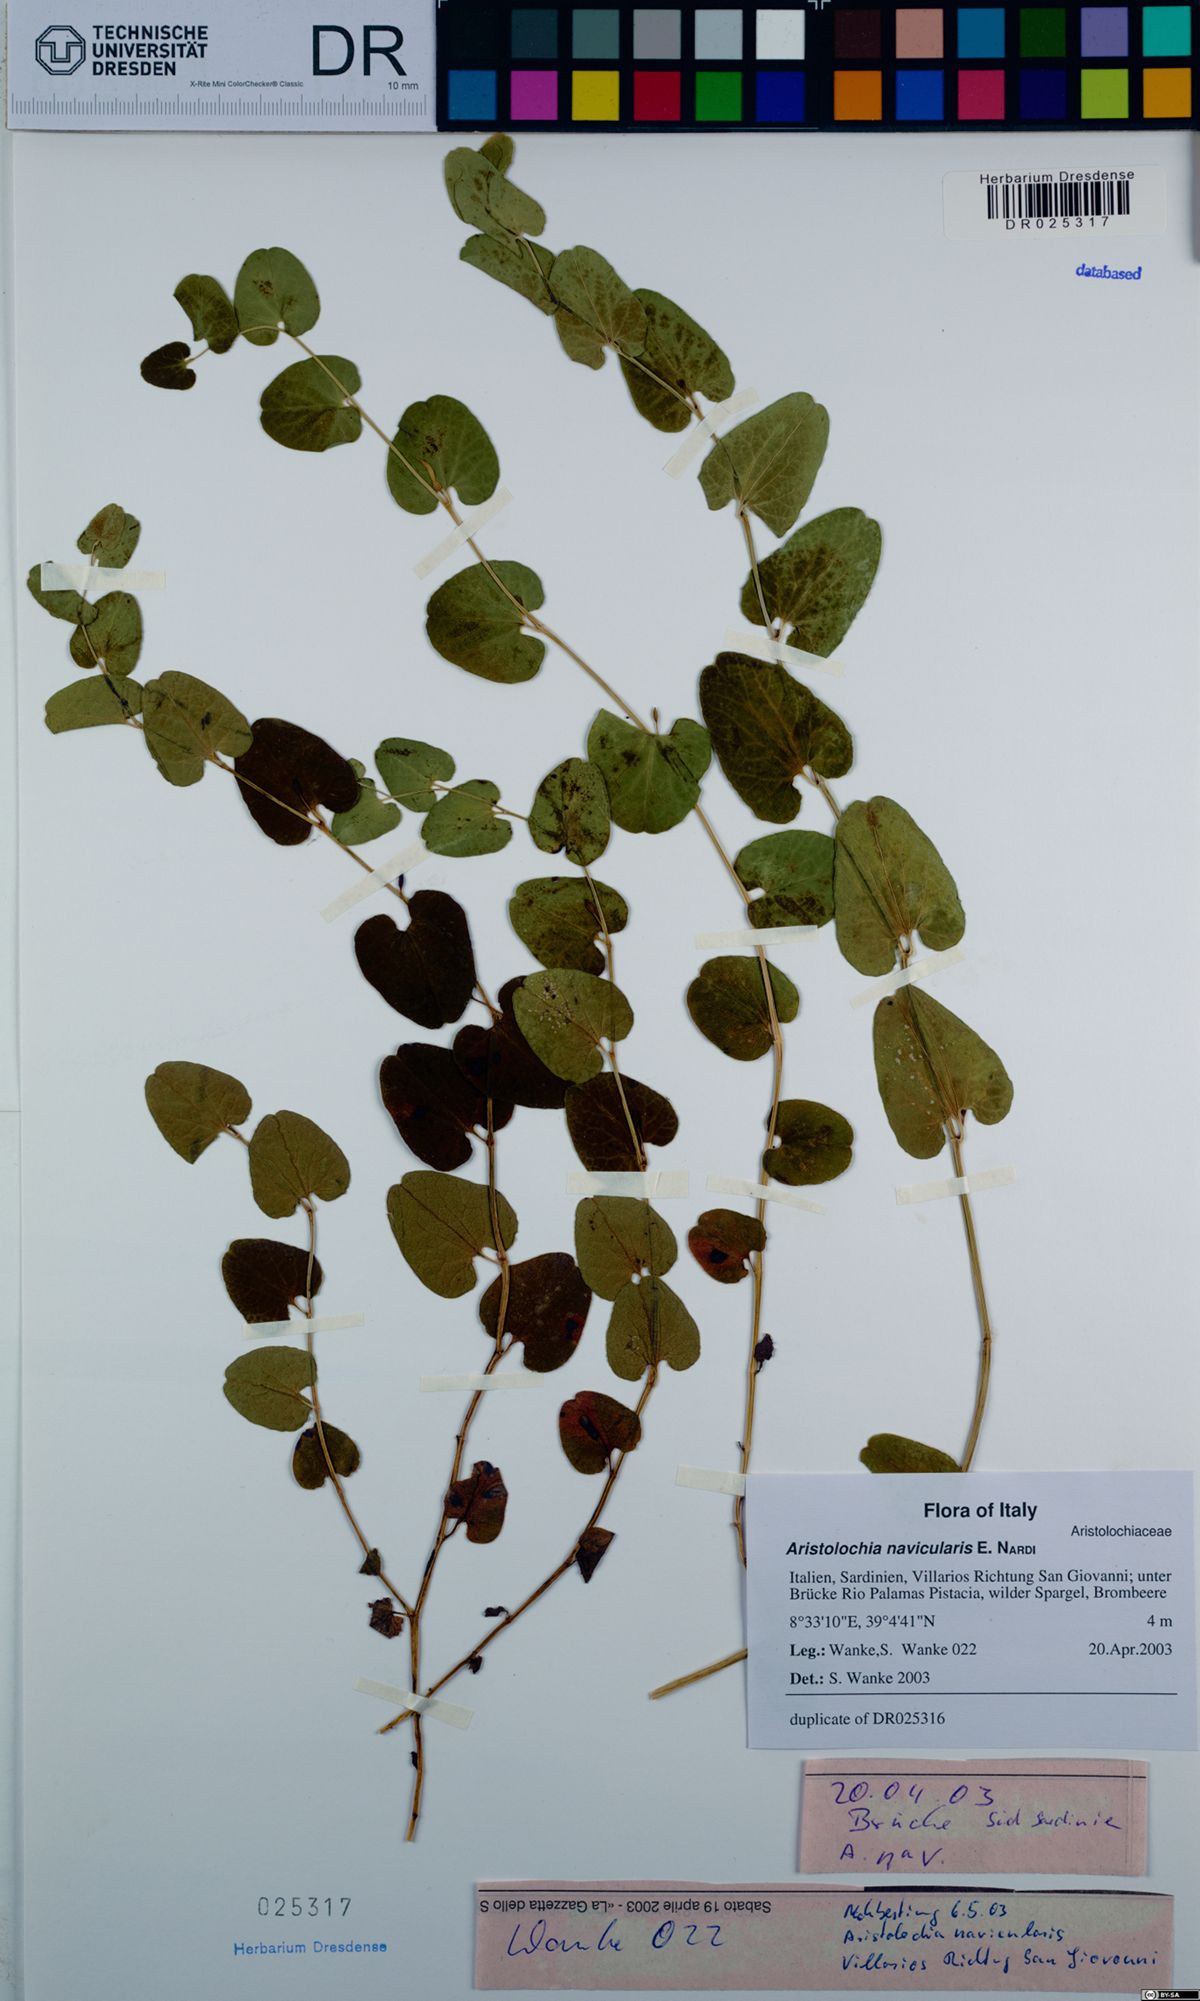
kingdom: Plantae
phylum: Tracheophyta
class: Magnoliopsida
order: Piperales
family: Aristolochiaceae
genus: Aristolochia
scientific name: Aristolochia navicularis
